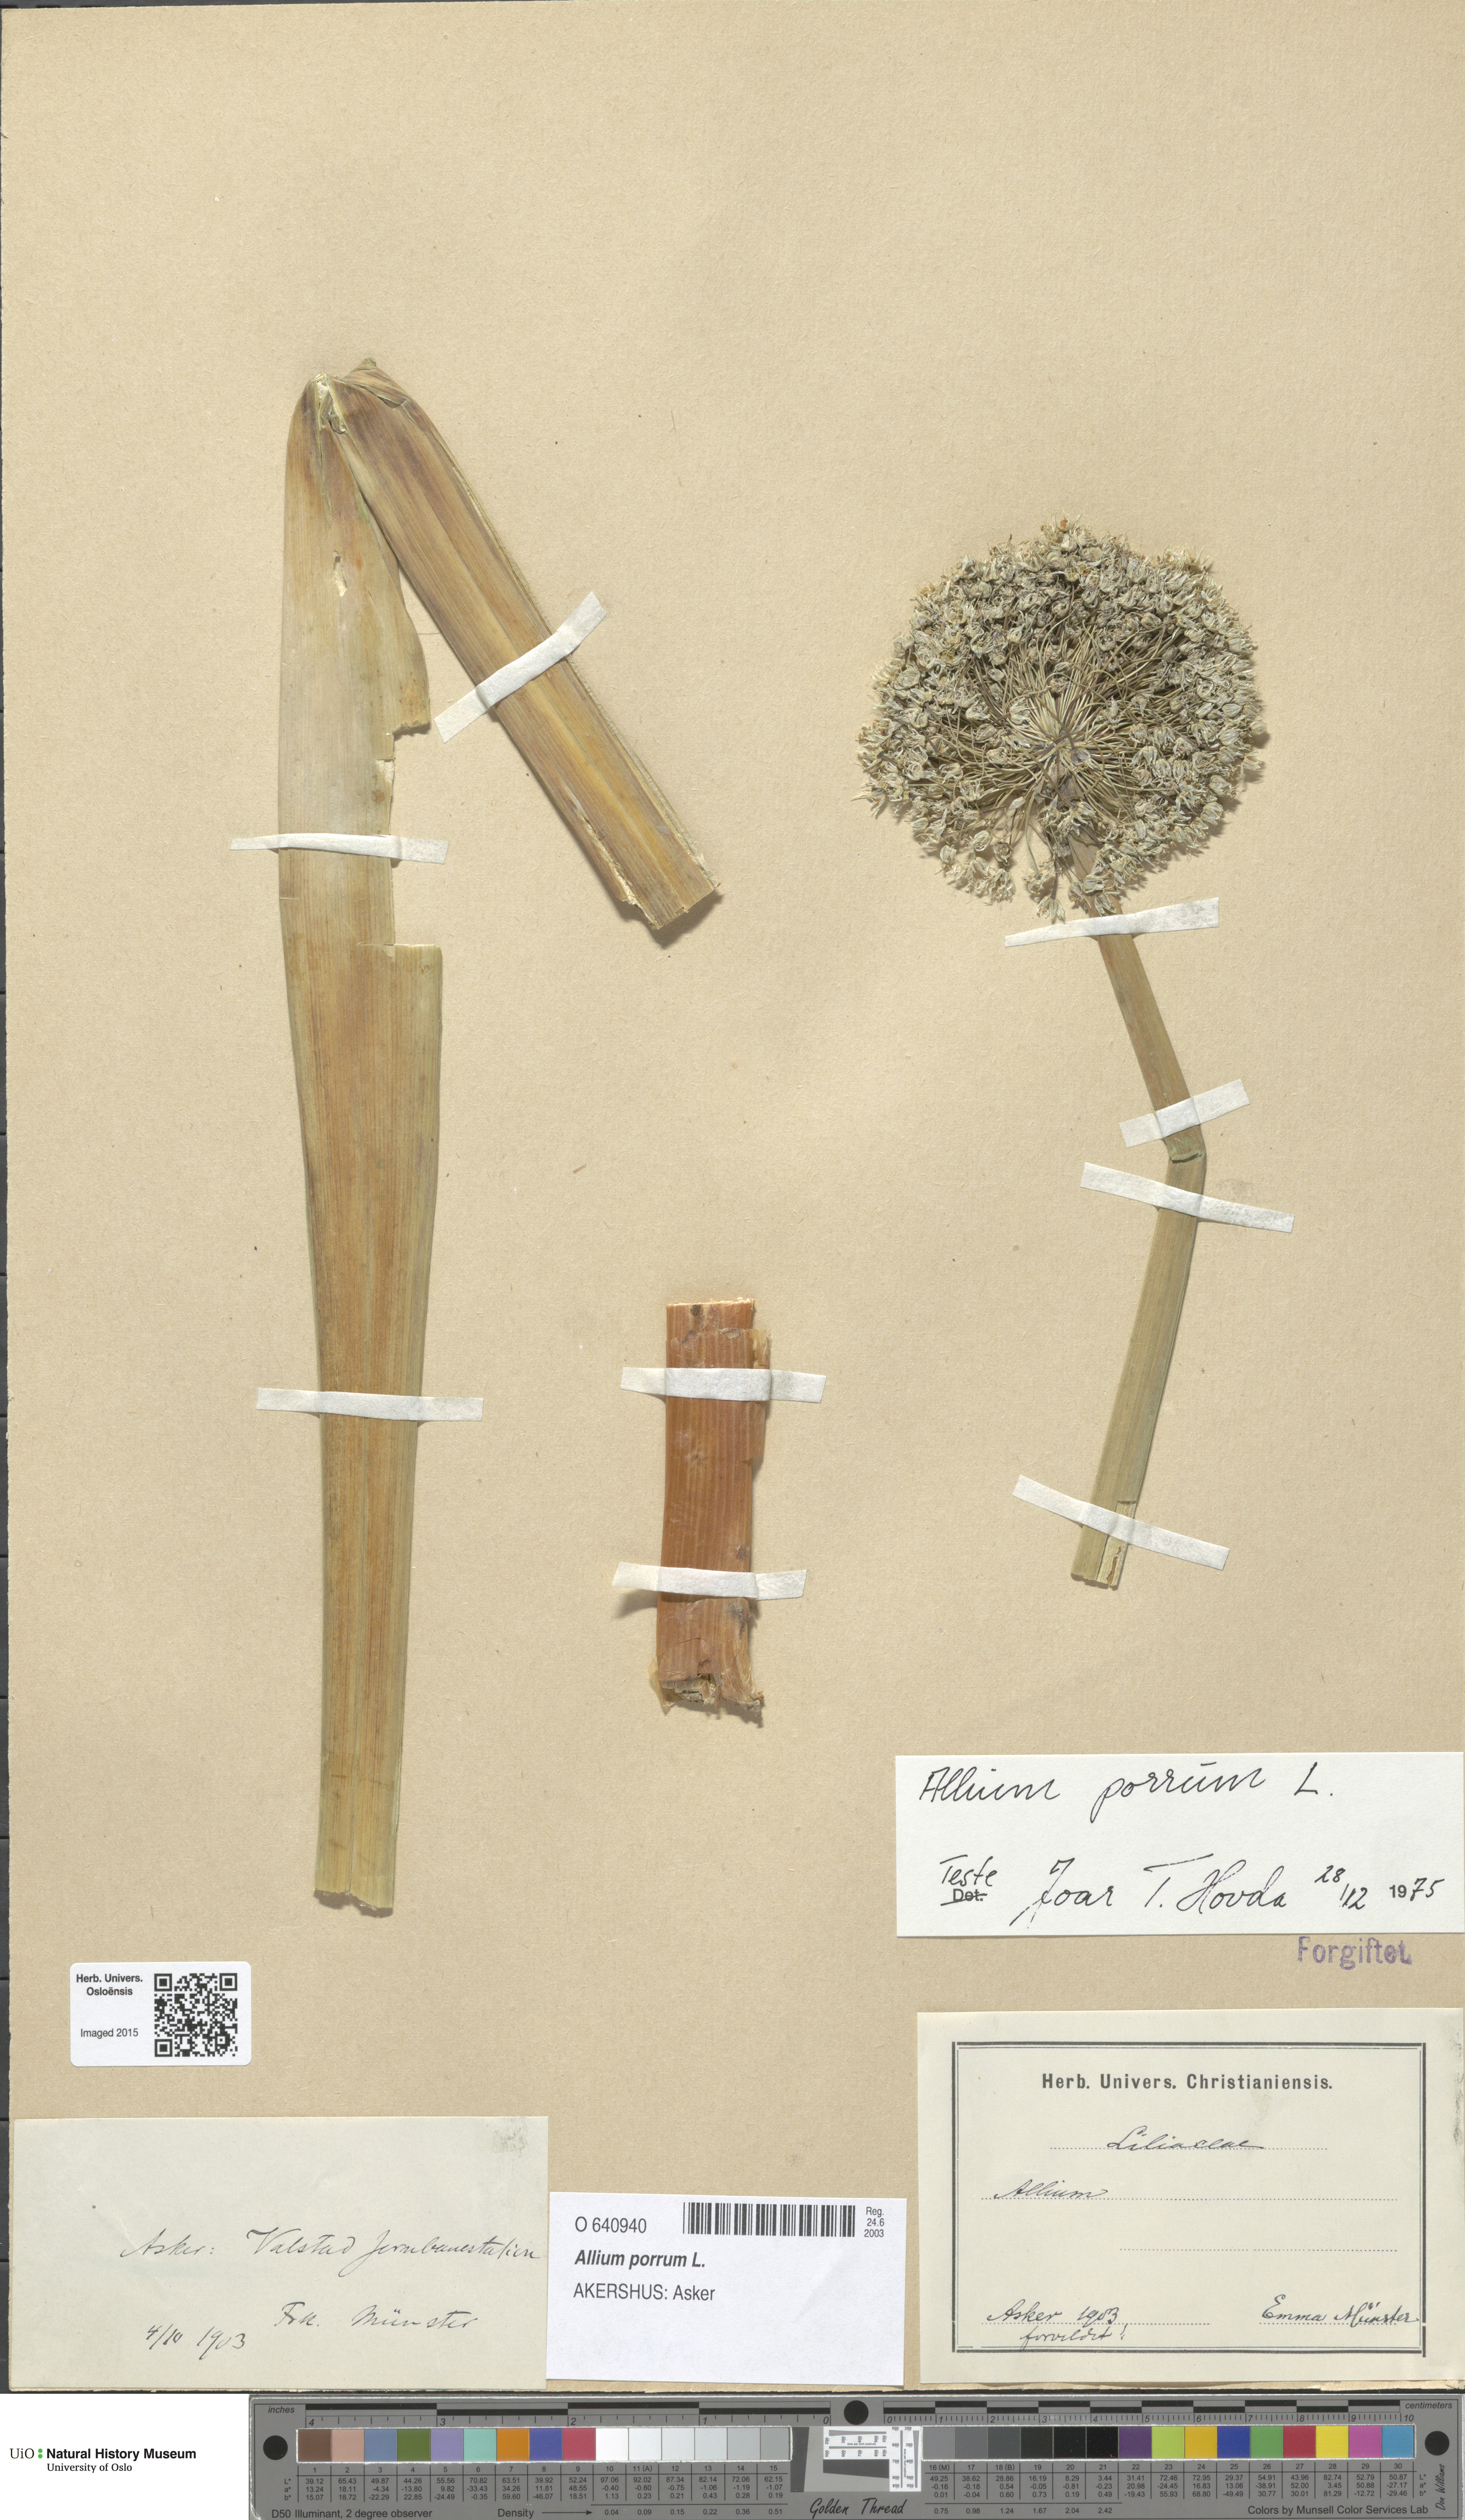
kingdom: Plantae
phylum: Tracheophyta
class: Liliopsida
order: Asparagales
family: Amaryllidaceae
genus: Allium
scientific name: Allium ampeloprasum
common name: Wild leek
